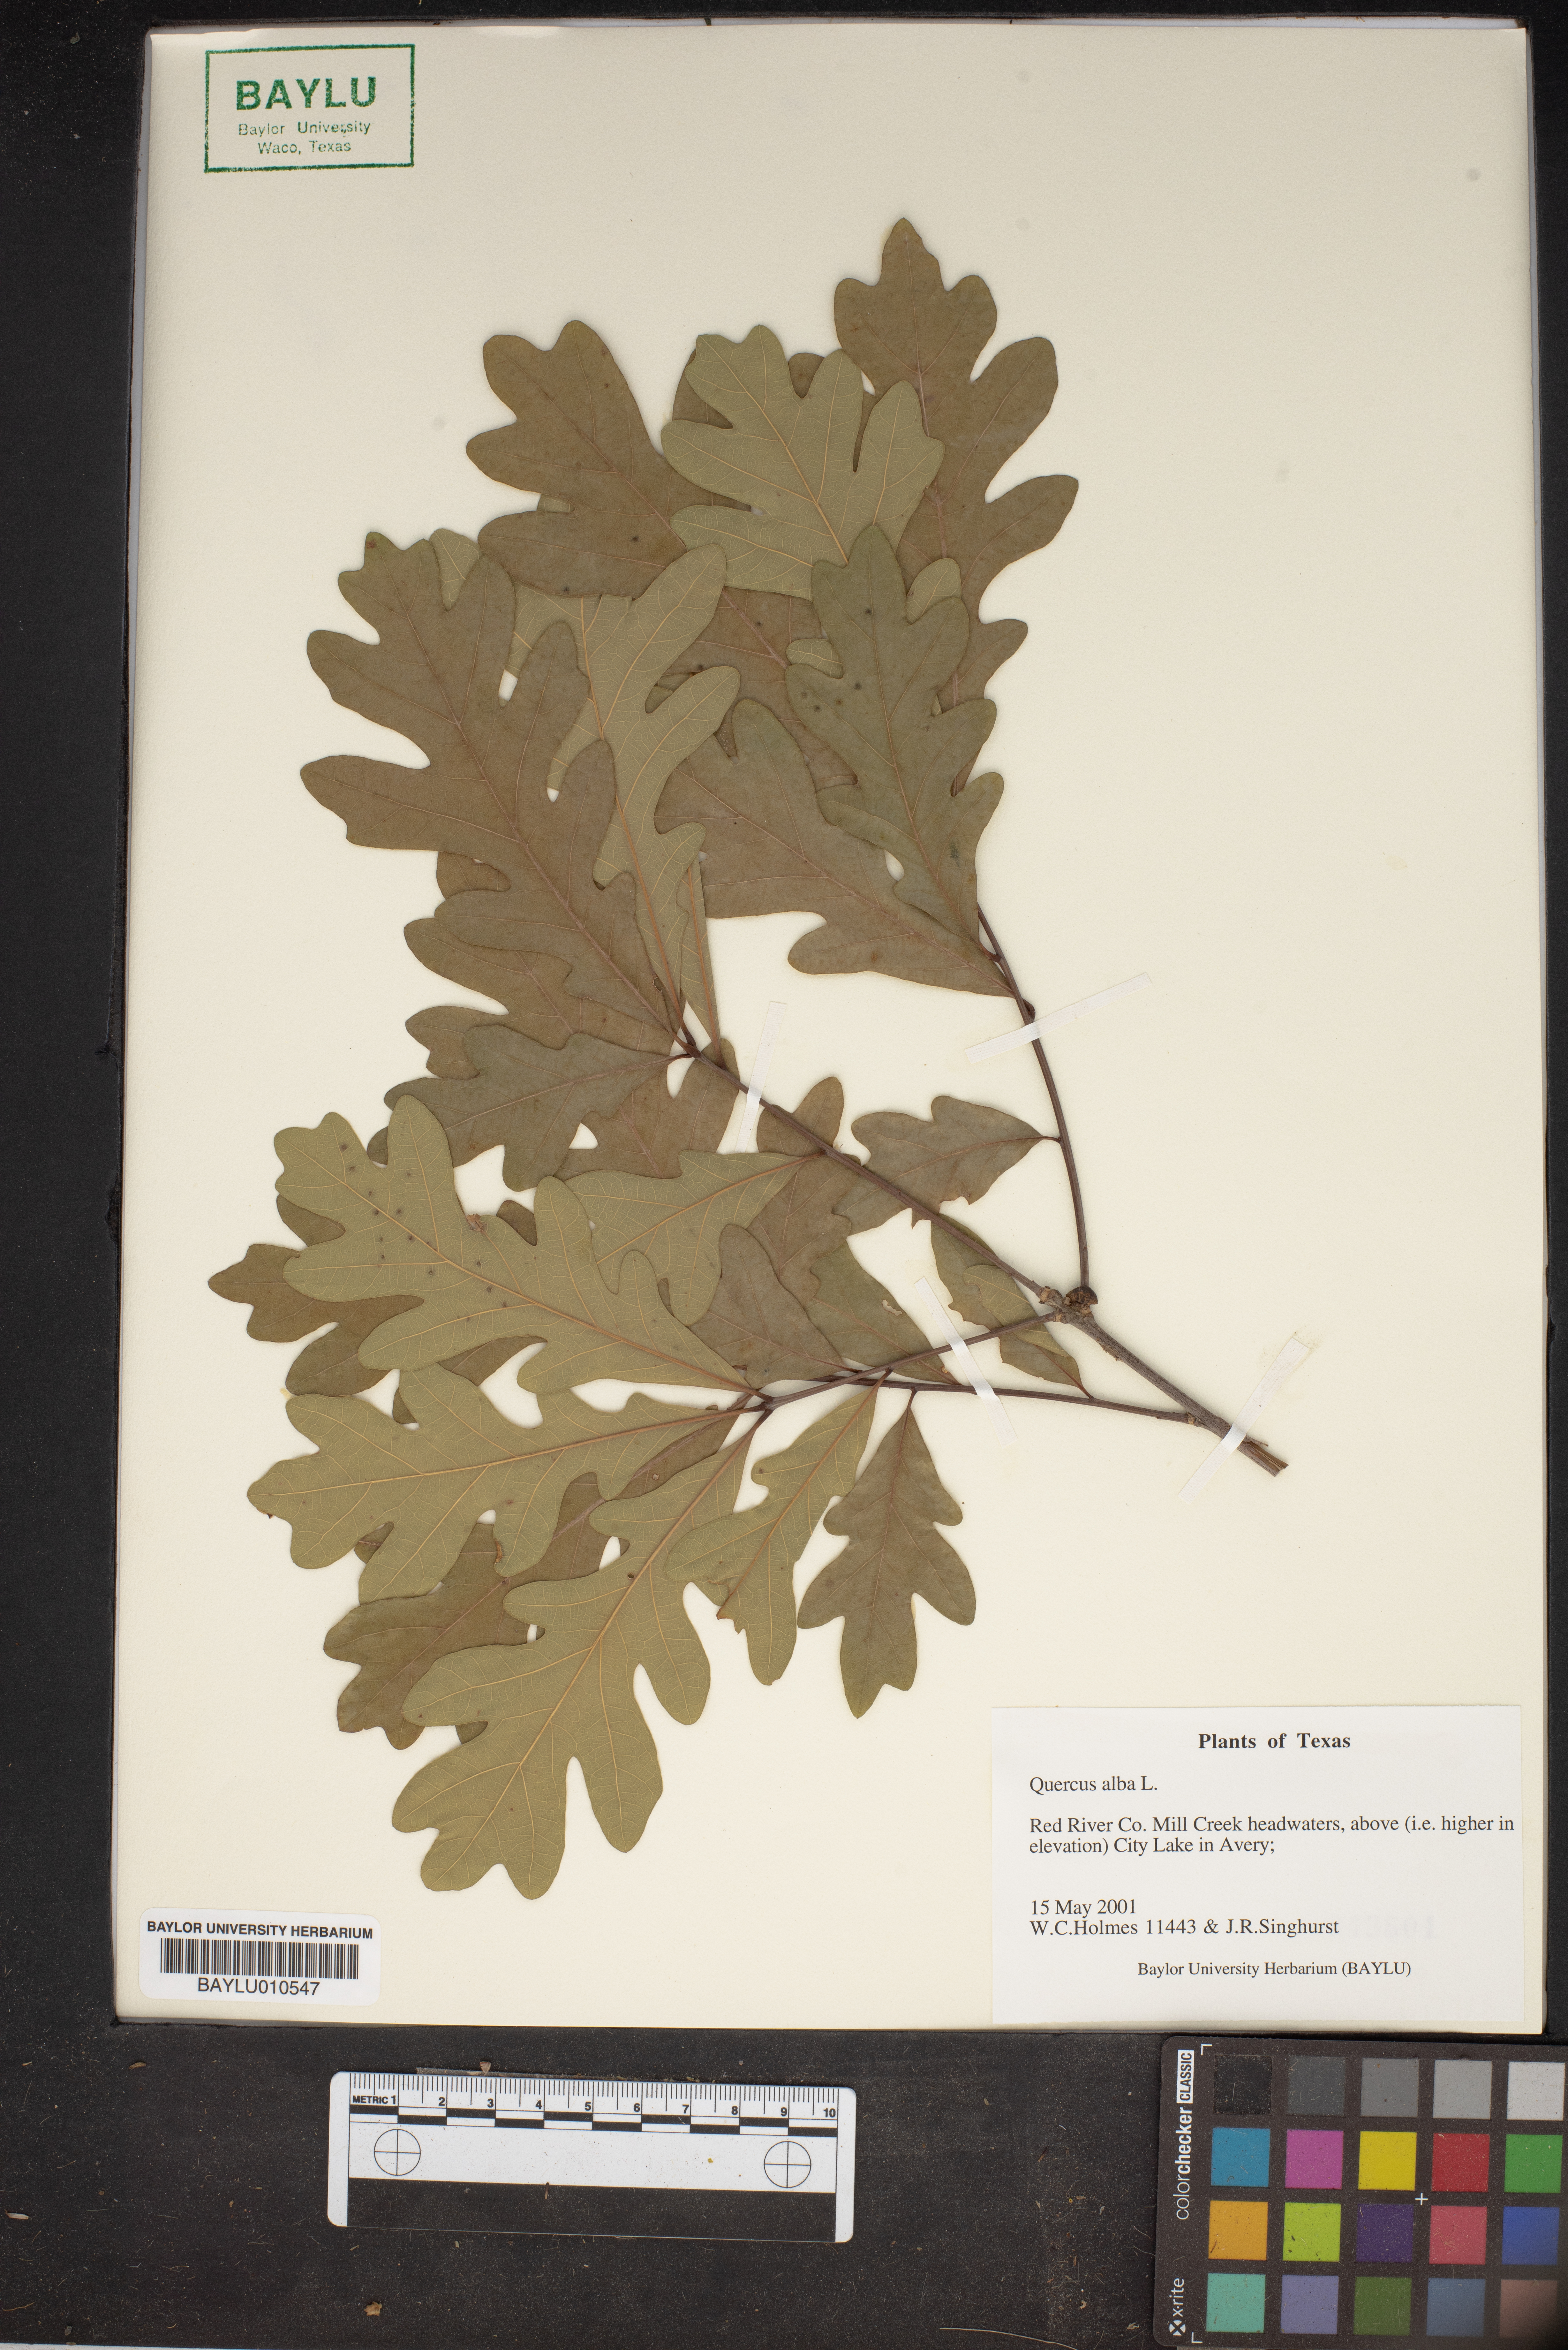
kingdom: Plantae
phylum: Tracheophyta
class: Magnoliopsida
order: Fagales
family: Fagaceae
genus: Quercus
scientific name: Quercus alba
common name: White oak
